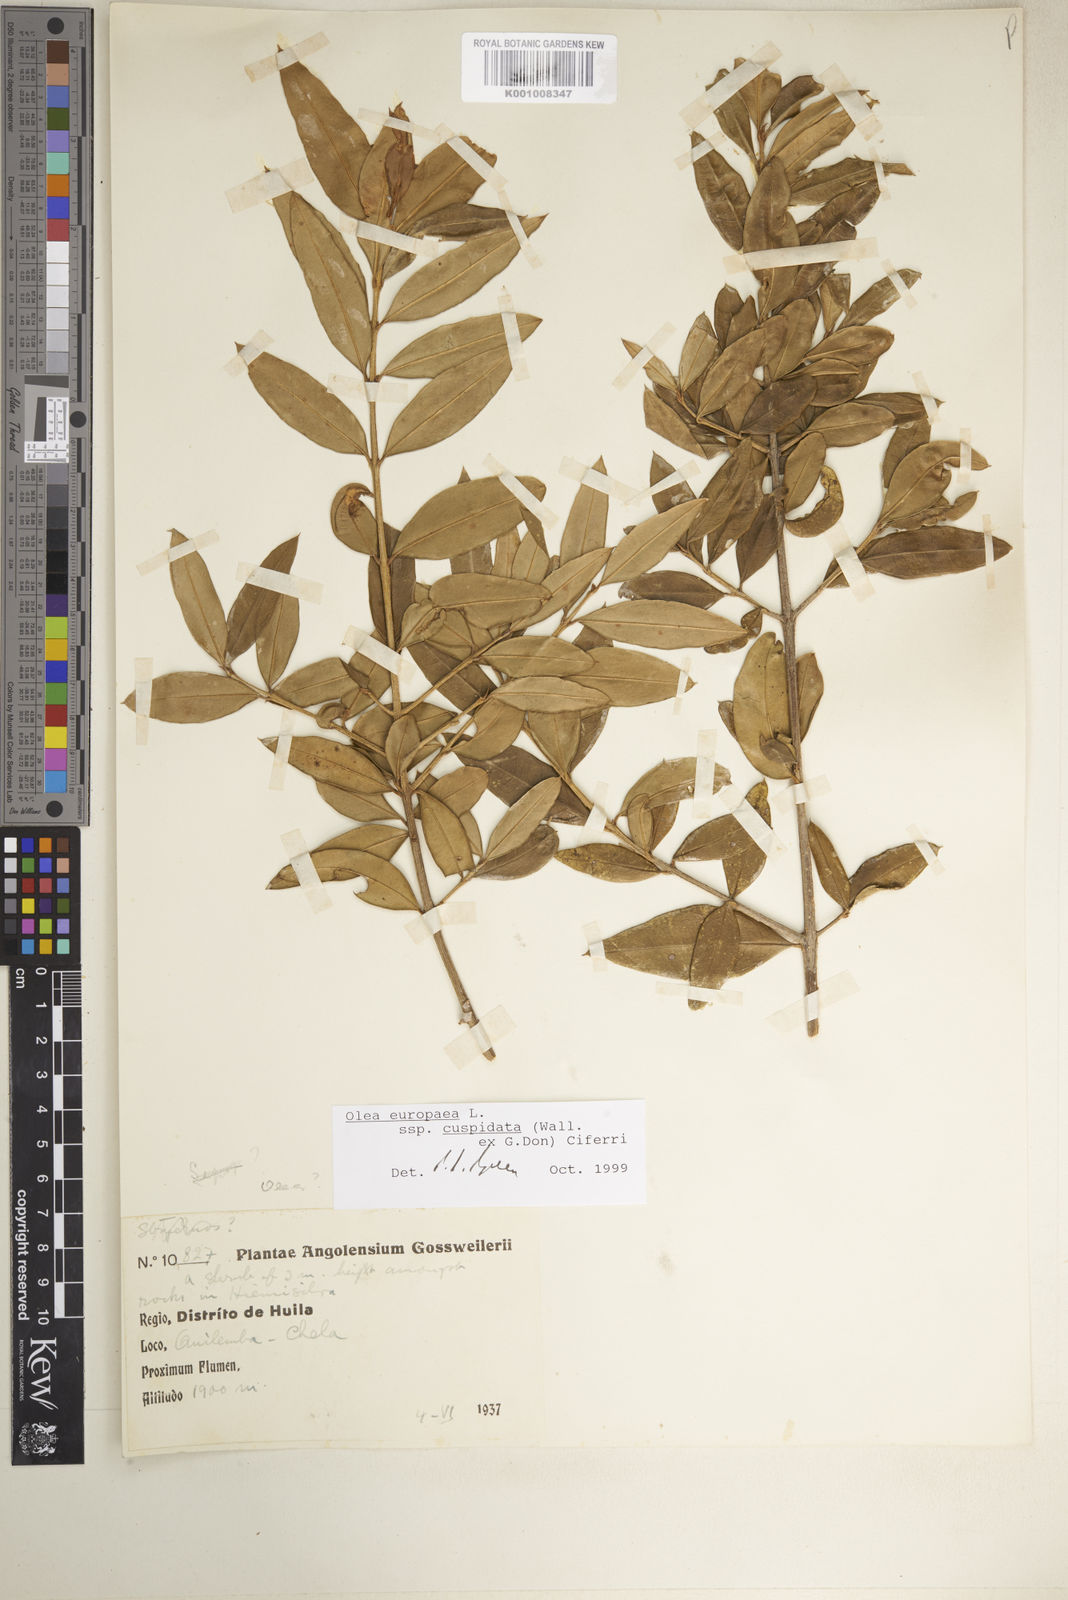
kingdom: Plantae
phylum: Tracheophyta
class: Magnoliopsida
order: Lamiales
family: Oleaceae
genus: Olea
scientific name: Olea europaea
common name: Olive
